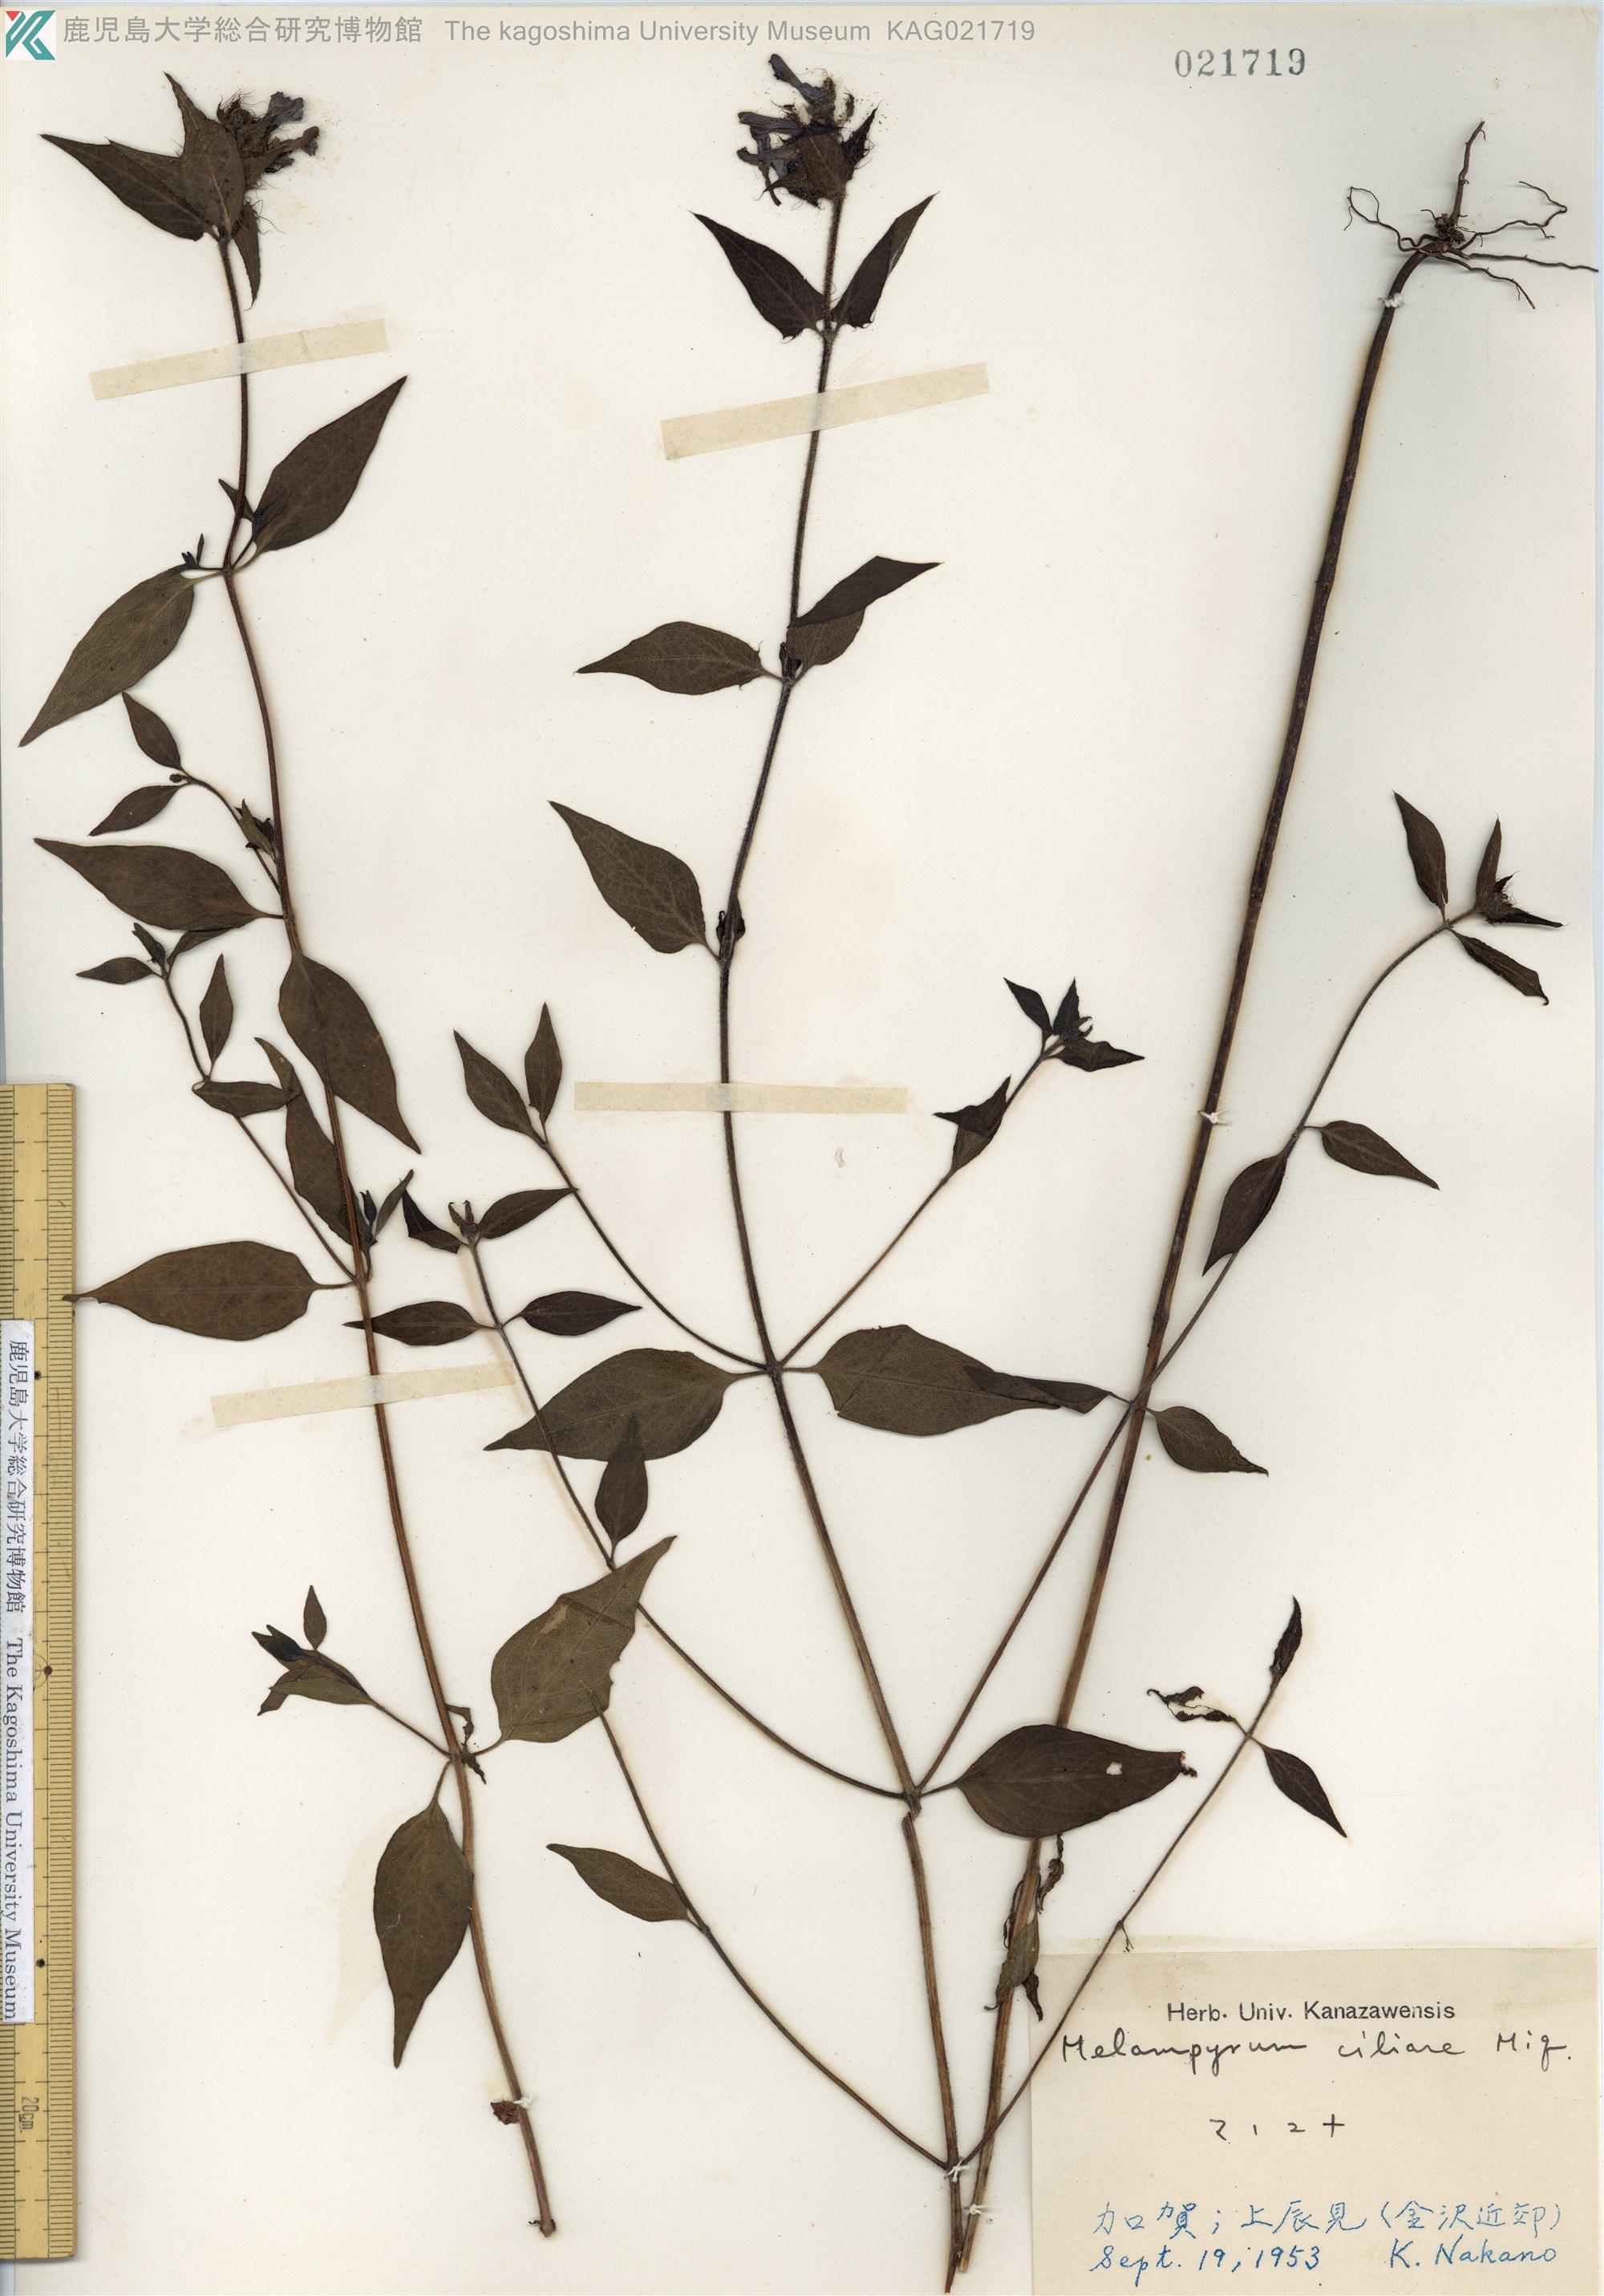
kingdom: Plantae
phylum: Tracheophyta
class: Magnoliopsida
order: Lamiales
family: Orobanchaceae
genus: Melampyrum
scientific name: Melampyrum roseum
